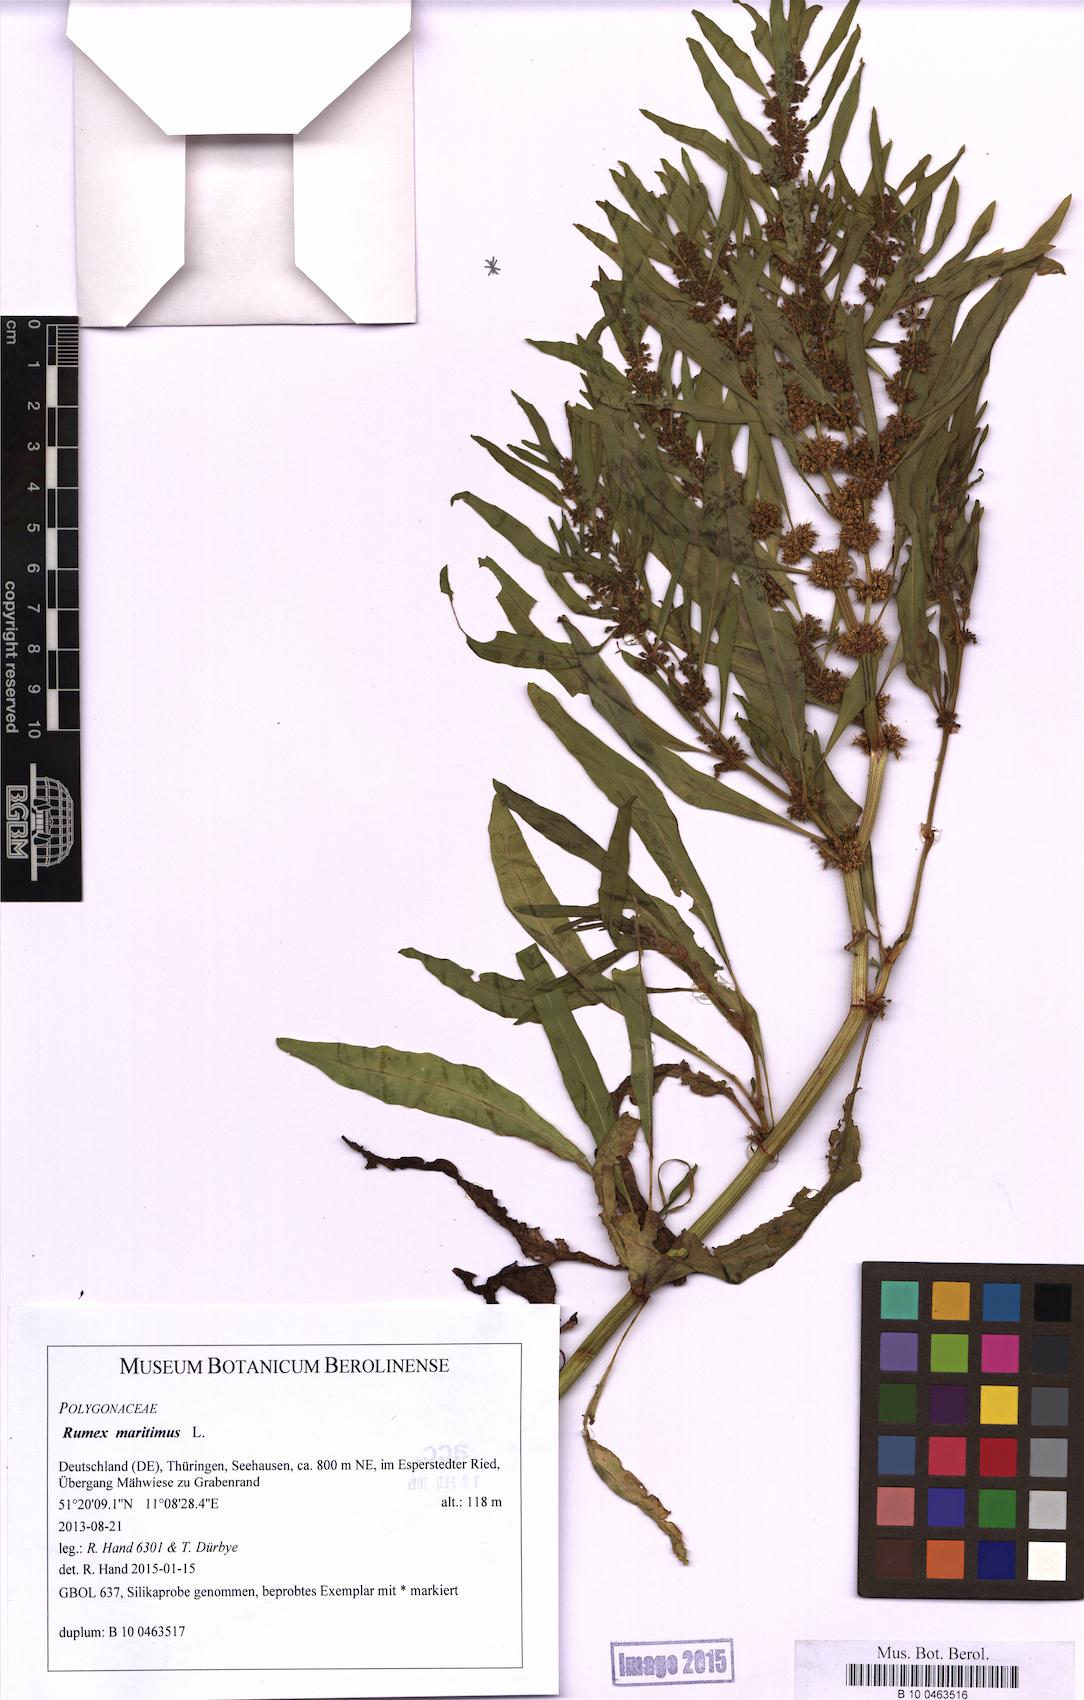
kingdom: Plantae
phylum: Tracheophyta
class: Magnoliopsida
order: Caryophyllales
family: Polygonaceae
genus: Rumex
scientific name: Rumex maritimus
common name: Golden dock
